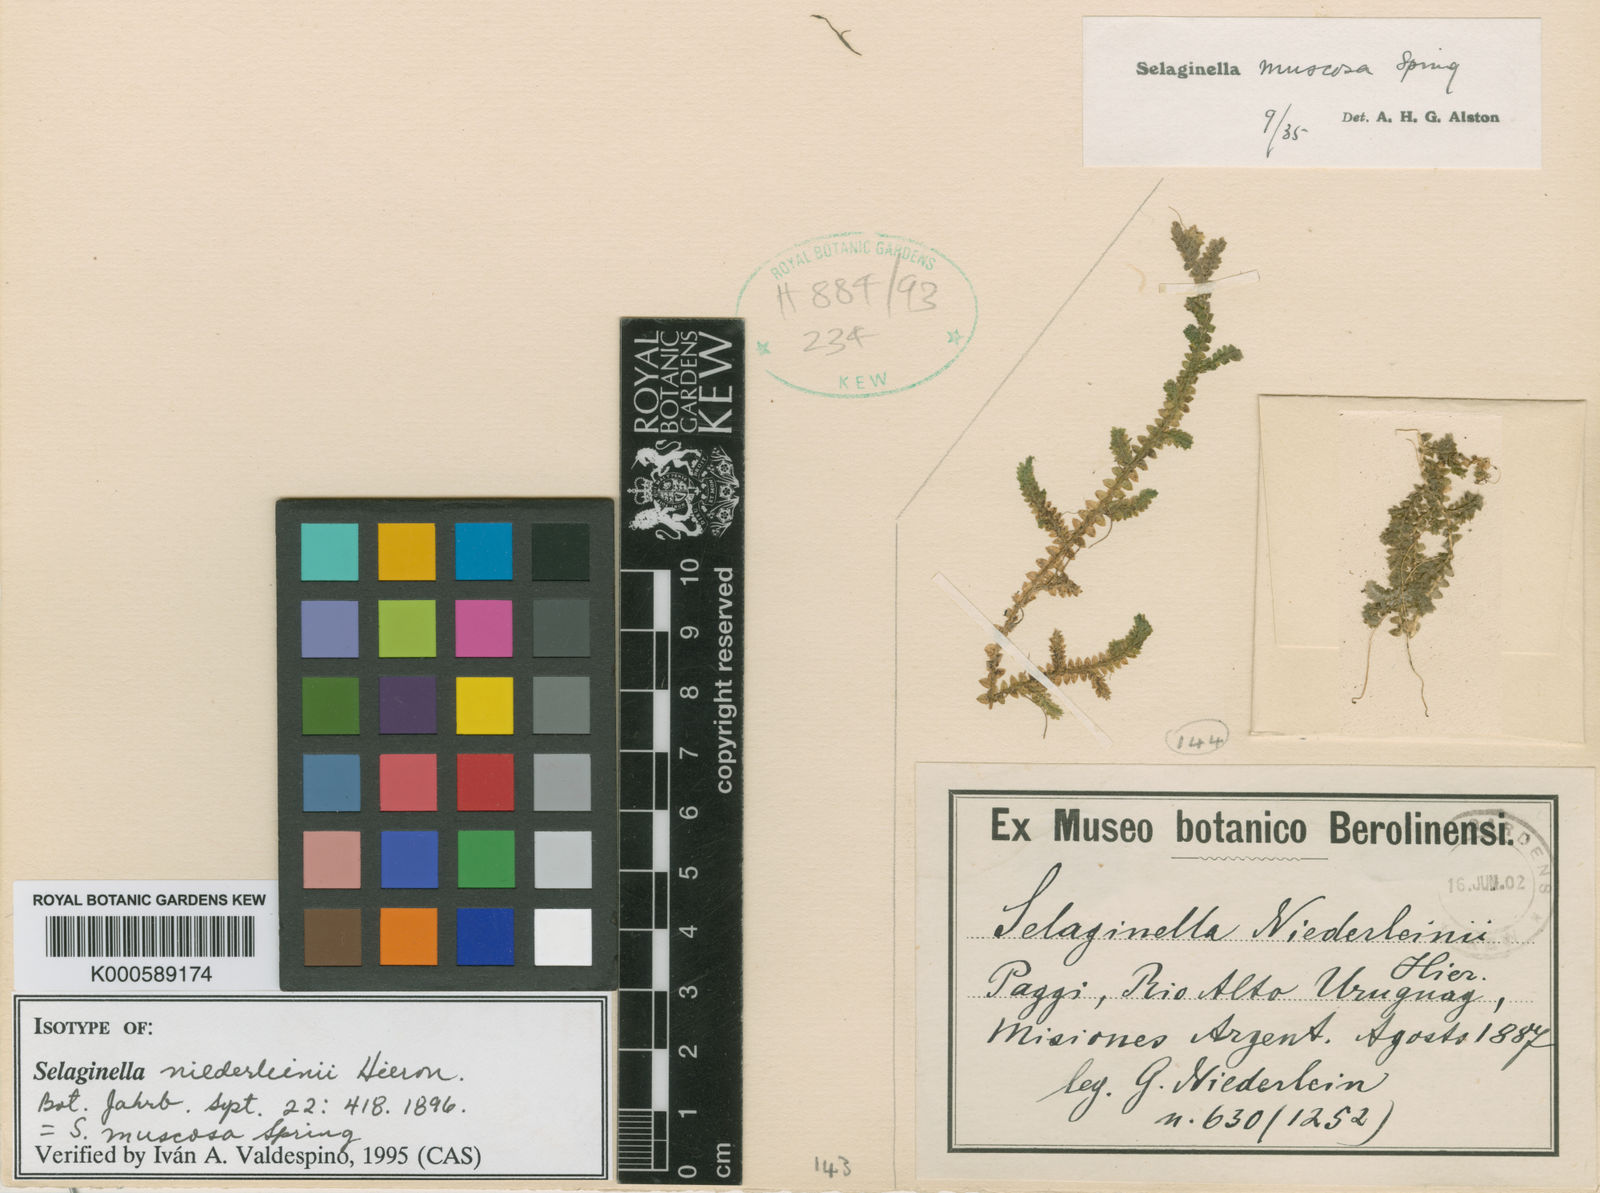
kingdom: Plantae
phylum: Tracheophyta
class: Lycopodiopsida
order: Selaginellales
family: Selaginellaceae
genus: Selaginella
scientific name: Selaginella muscosa
